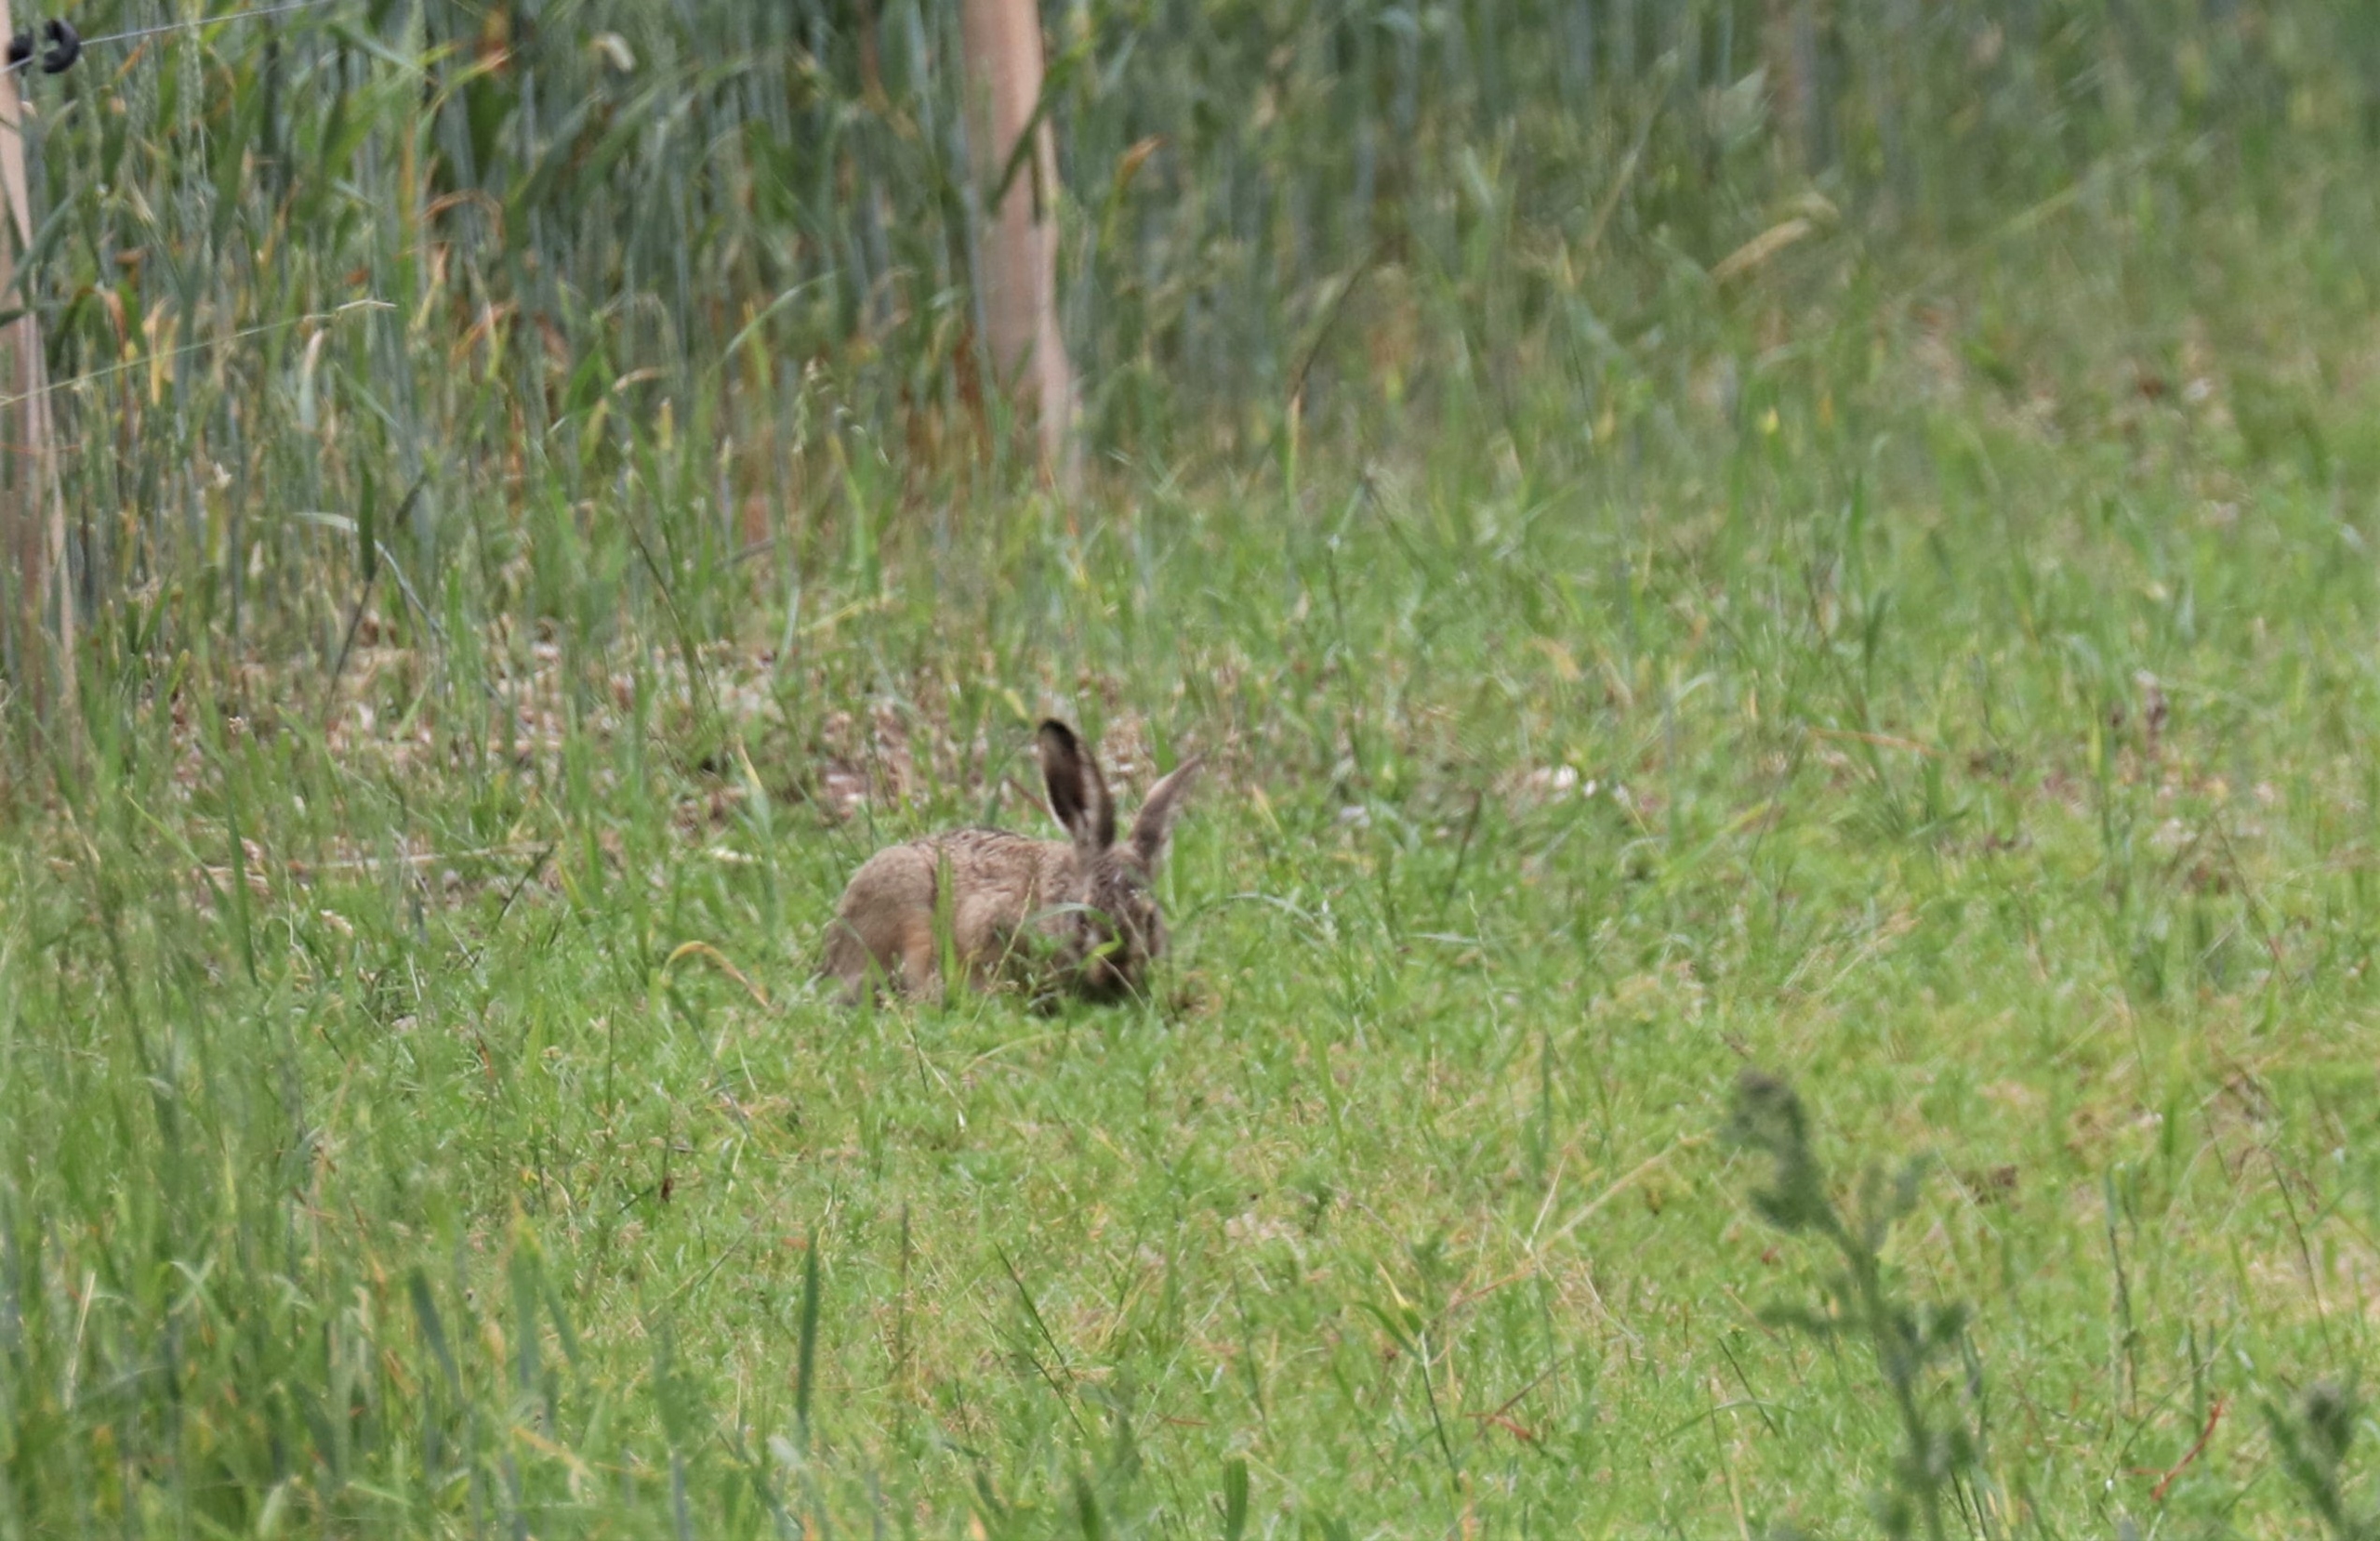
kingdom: Animalia
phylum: Chordata
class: Mammalia
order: Lagomorpha
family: Leporidae
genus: Lepus
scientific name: Lepus europaeus
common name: Hare
